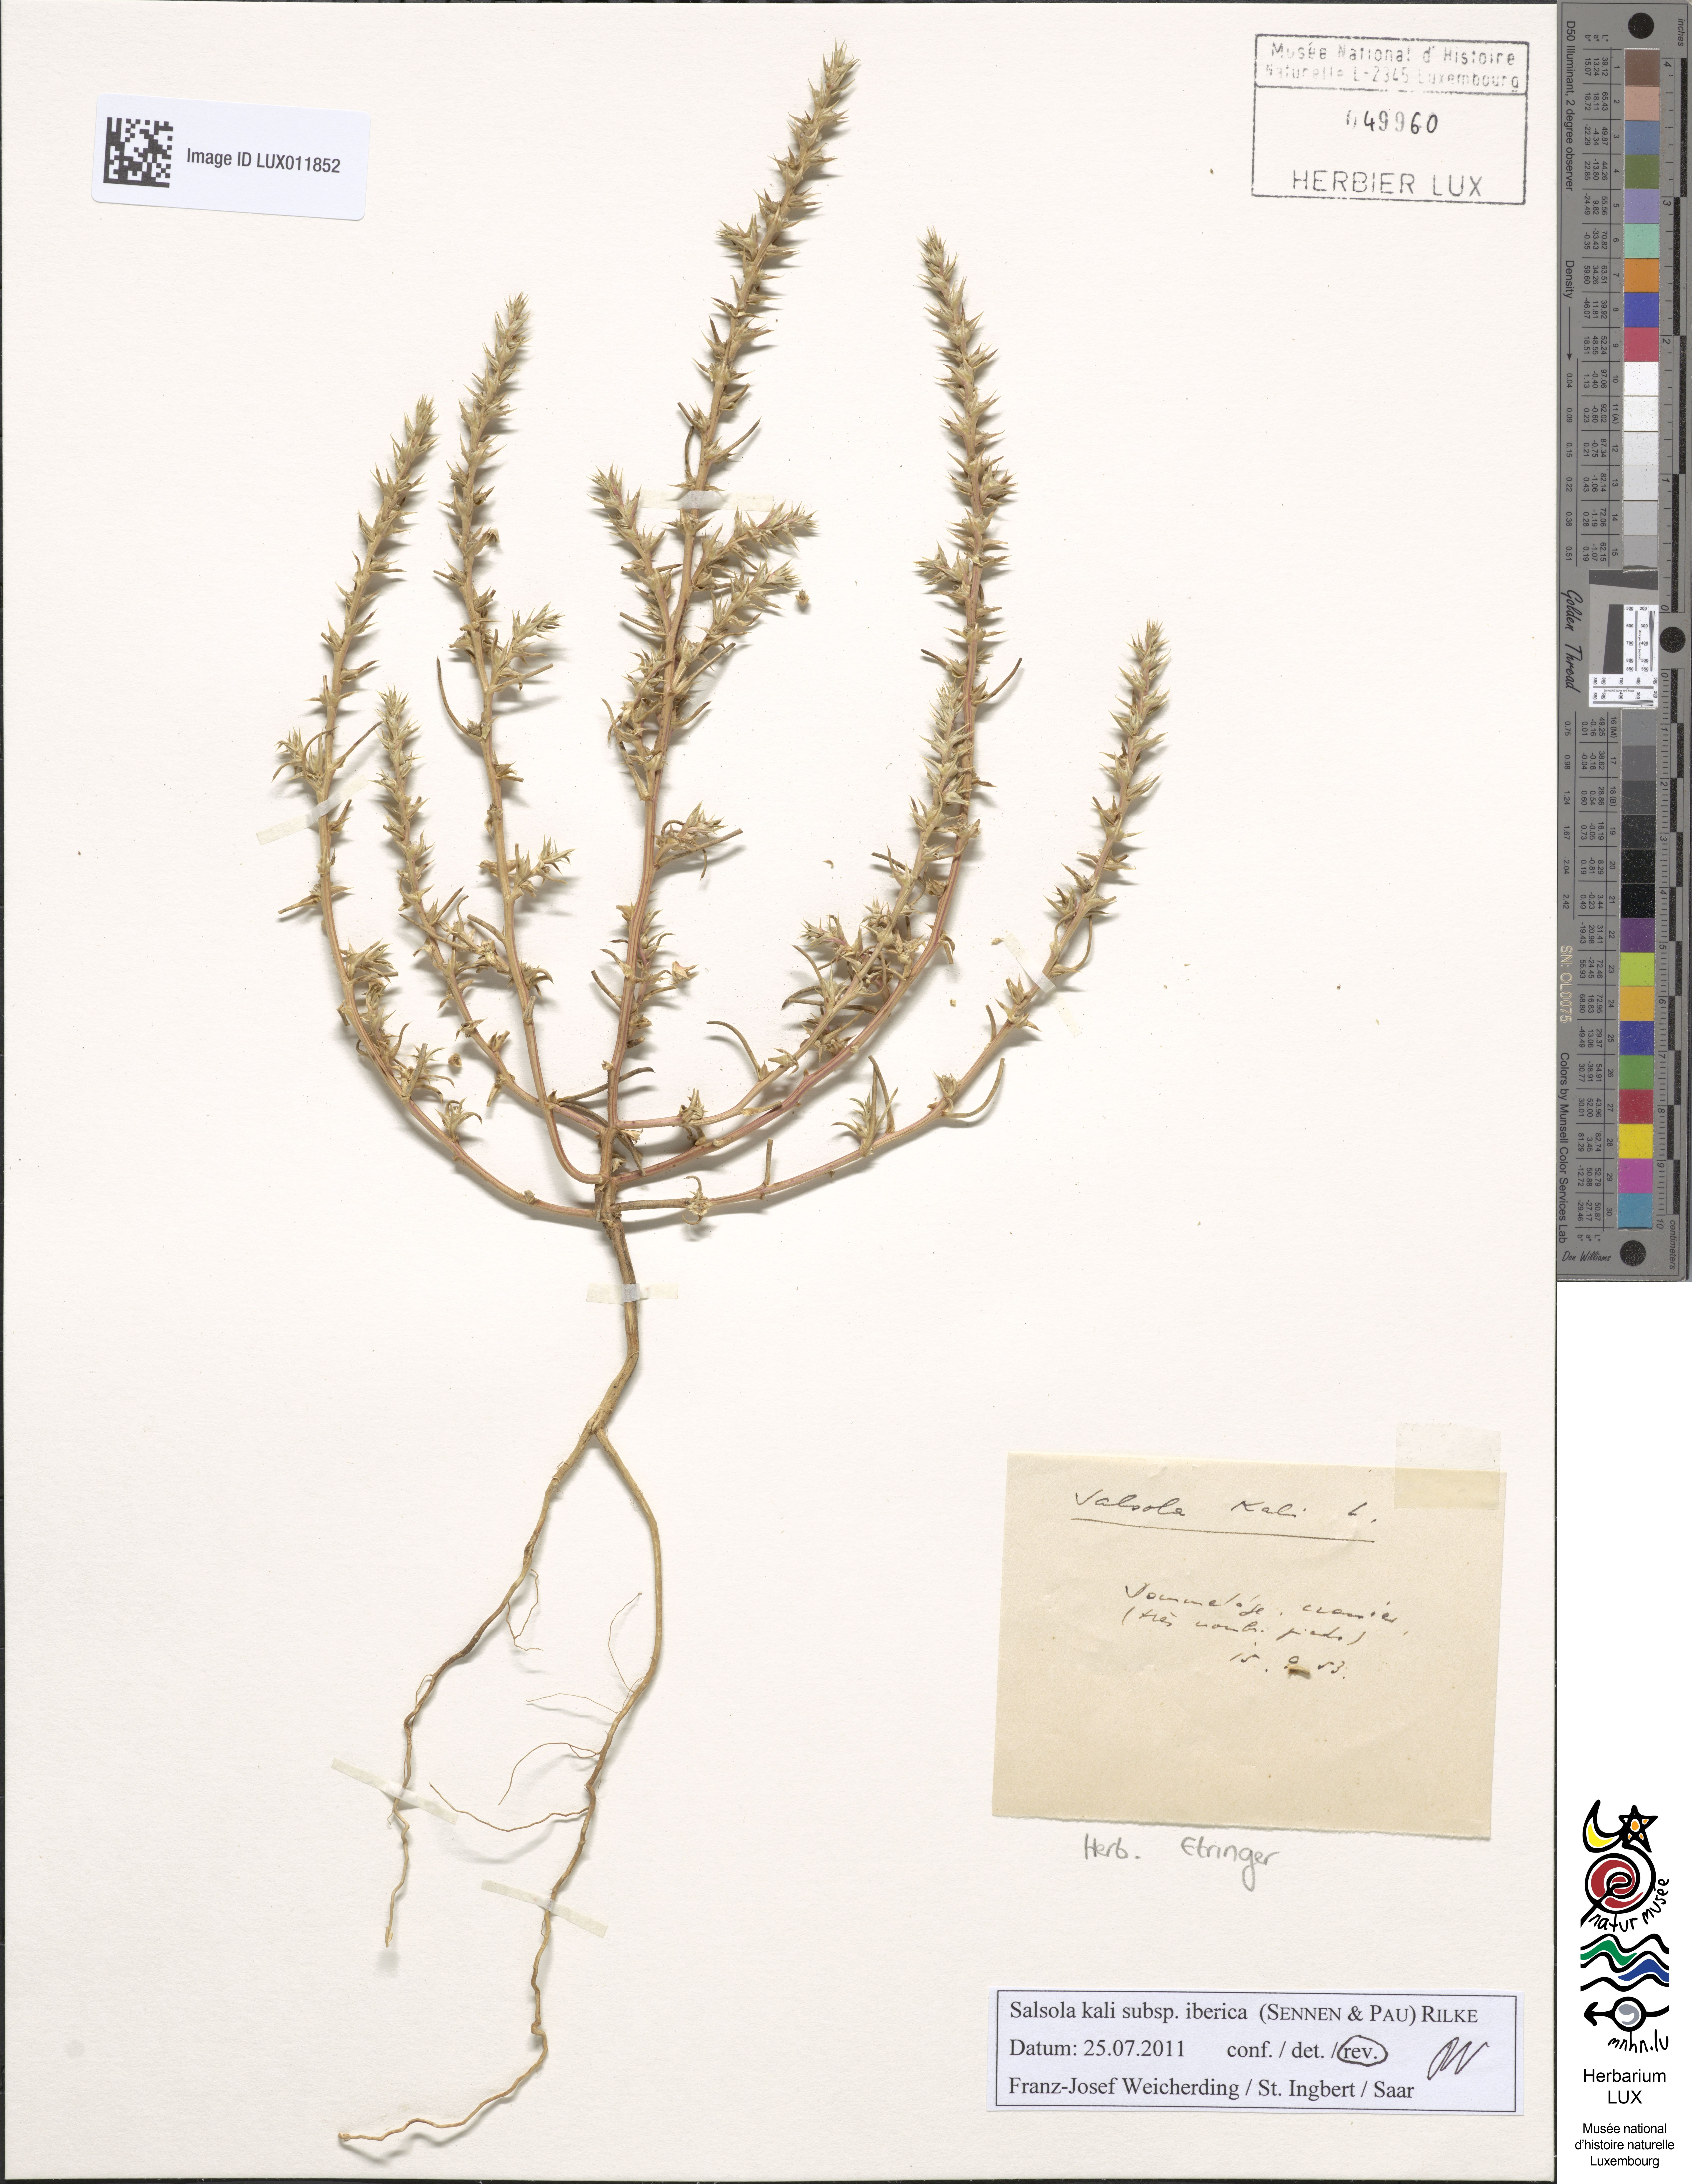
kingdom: Plantae
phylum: Tracheophyta
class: Magnoliopsida
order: Caryophyllales
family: Amaranthaceae
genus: Salsola
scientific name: Salsola kali
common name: Saltwort
